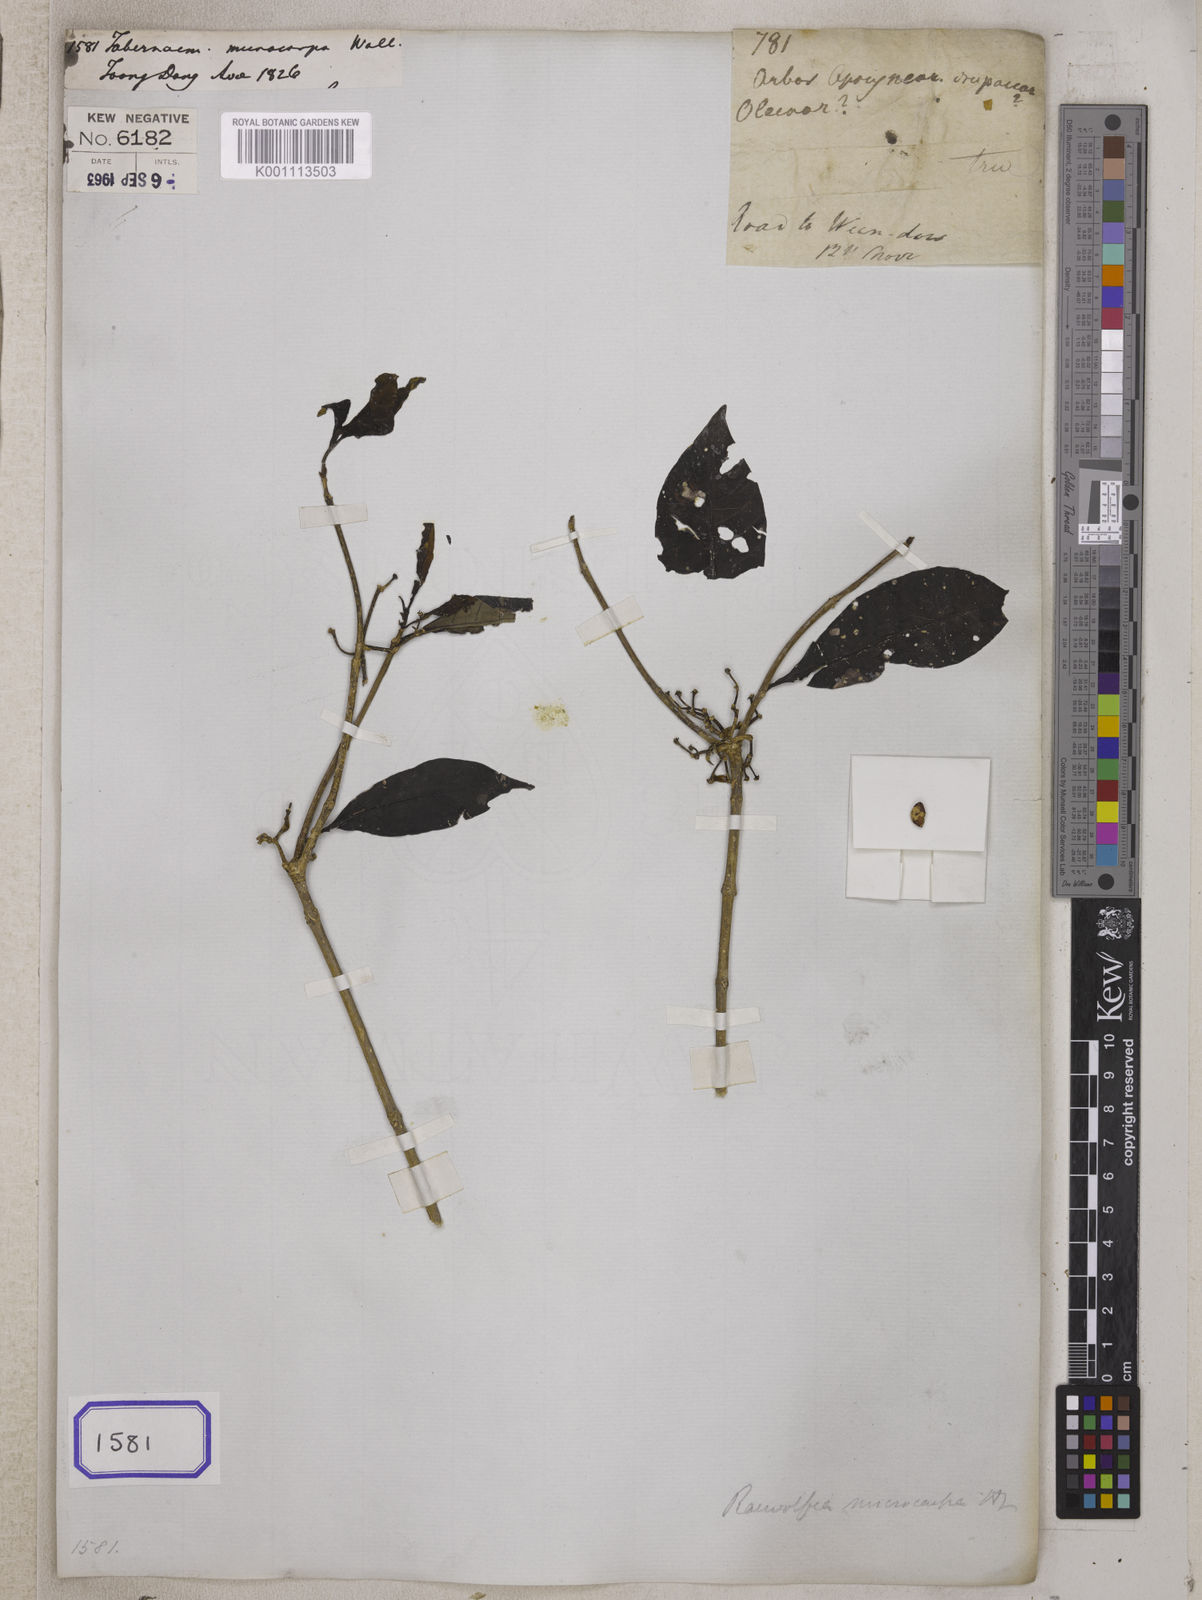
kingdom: Plantae
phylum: Tracheophyta
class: Magnoliopsida
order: Gentianales
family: Apocynaceae
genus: Rauvolfia
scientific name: Rauvolfia verticillata
